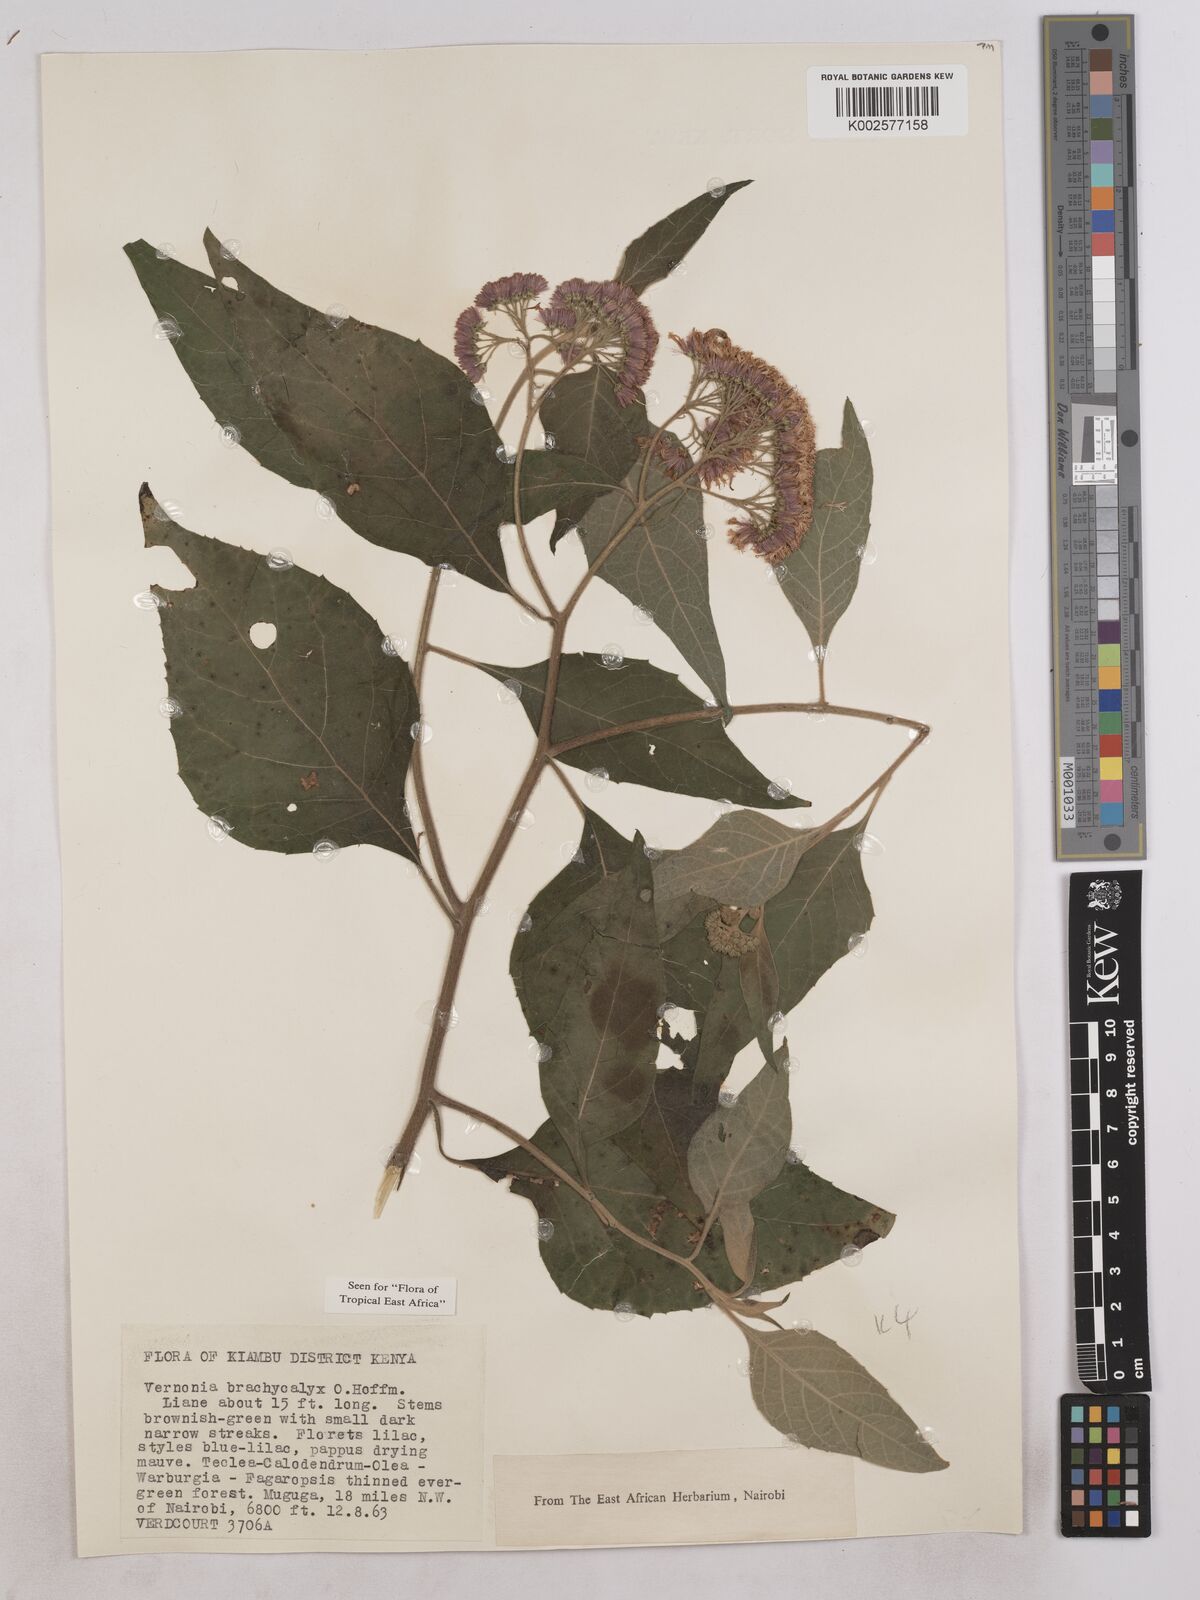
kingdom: Plantae
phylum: Tracheophyta
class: Magnoliopsida
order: Asterales
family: Asteraceae
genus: Hoffmannanthus
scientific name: Hoffmannanthus abbotianus
